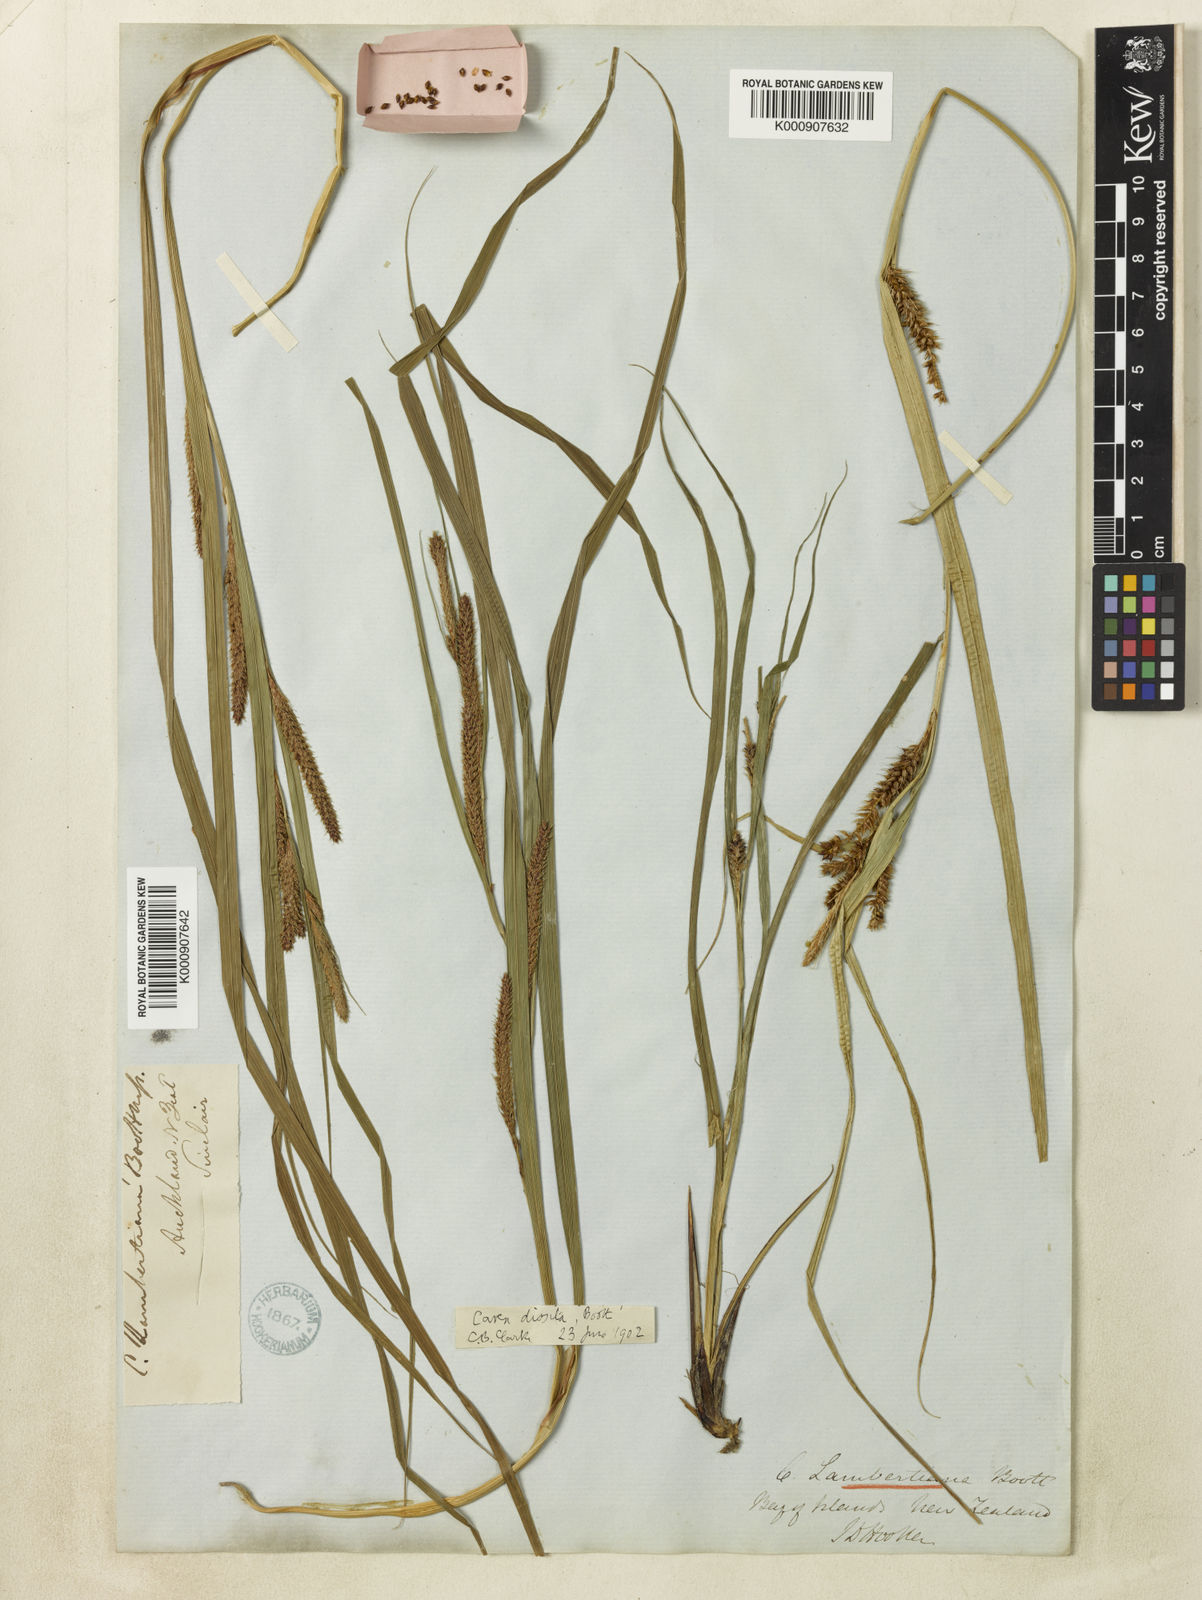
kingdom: Plantae
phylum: Tracheophyta
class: Liliopsida
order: Poales
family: Cyperaceae
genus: Carex
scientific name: Carex dissita
